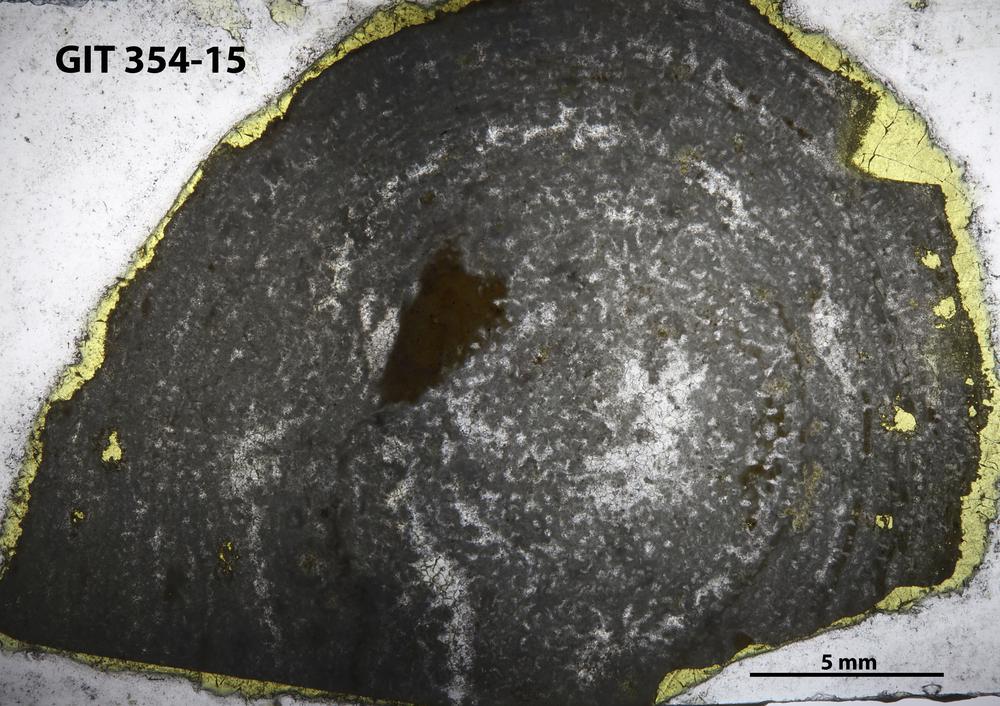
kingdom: Animalia
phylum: Porifera
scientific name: Porifera
